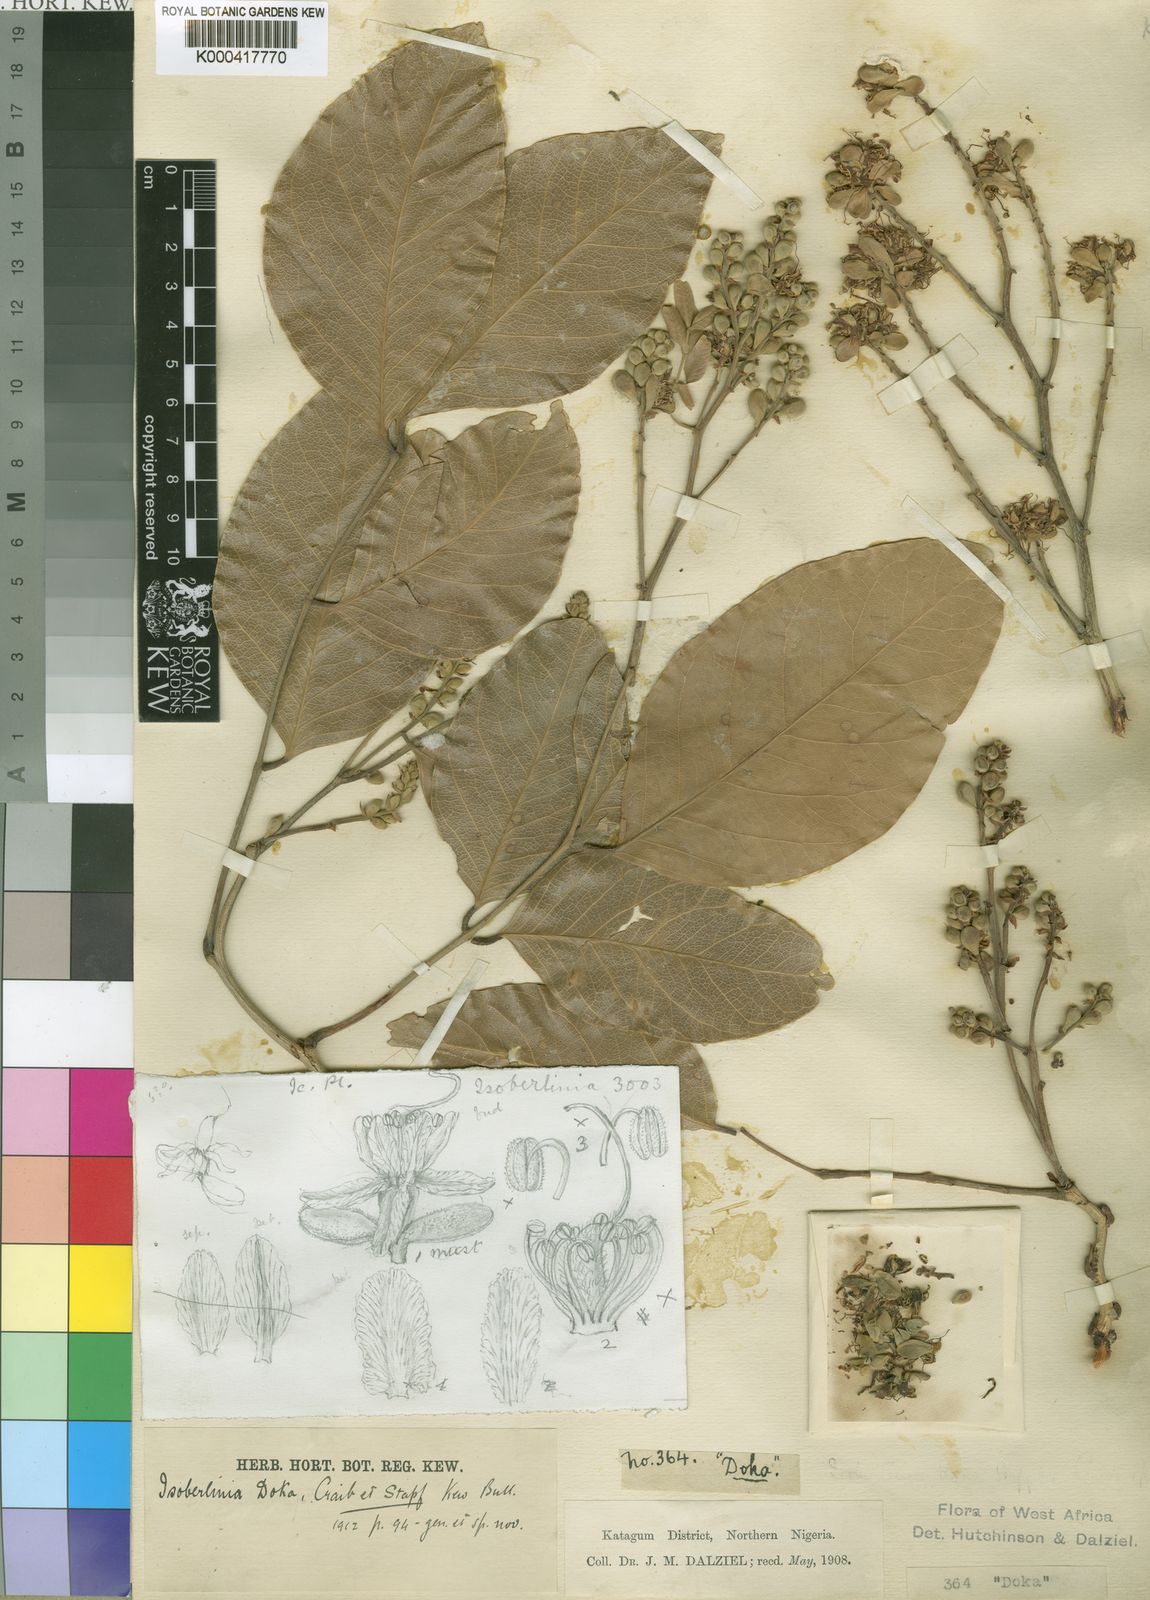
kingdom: Plantae
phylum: Tracheophyta
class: Magnoliopsida
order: Fabales
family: Fabaceae
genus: Isoberlinia
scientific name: Isoberlinia doka
